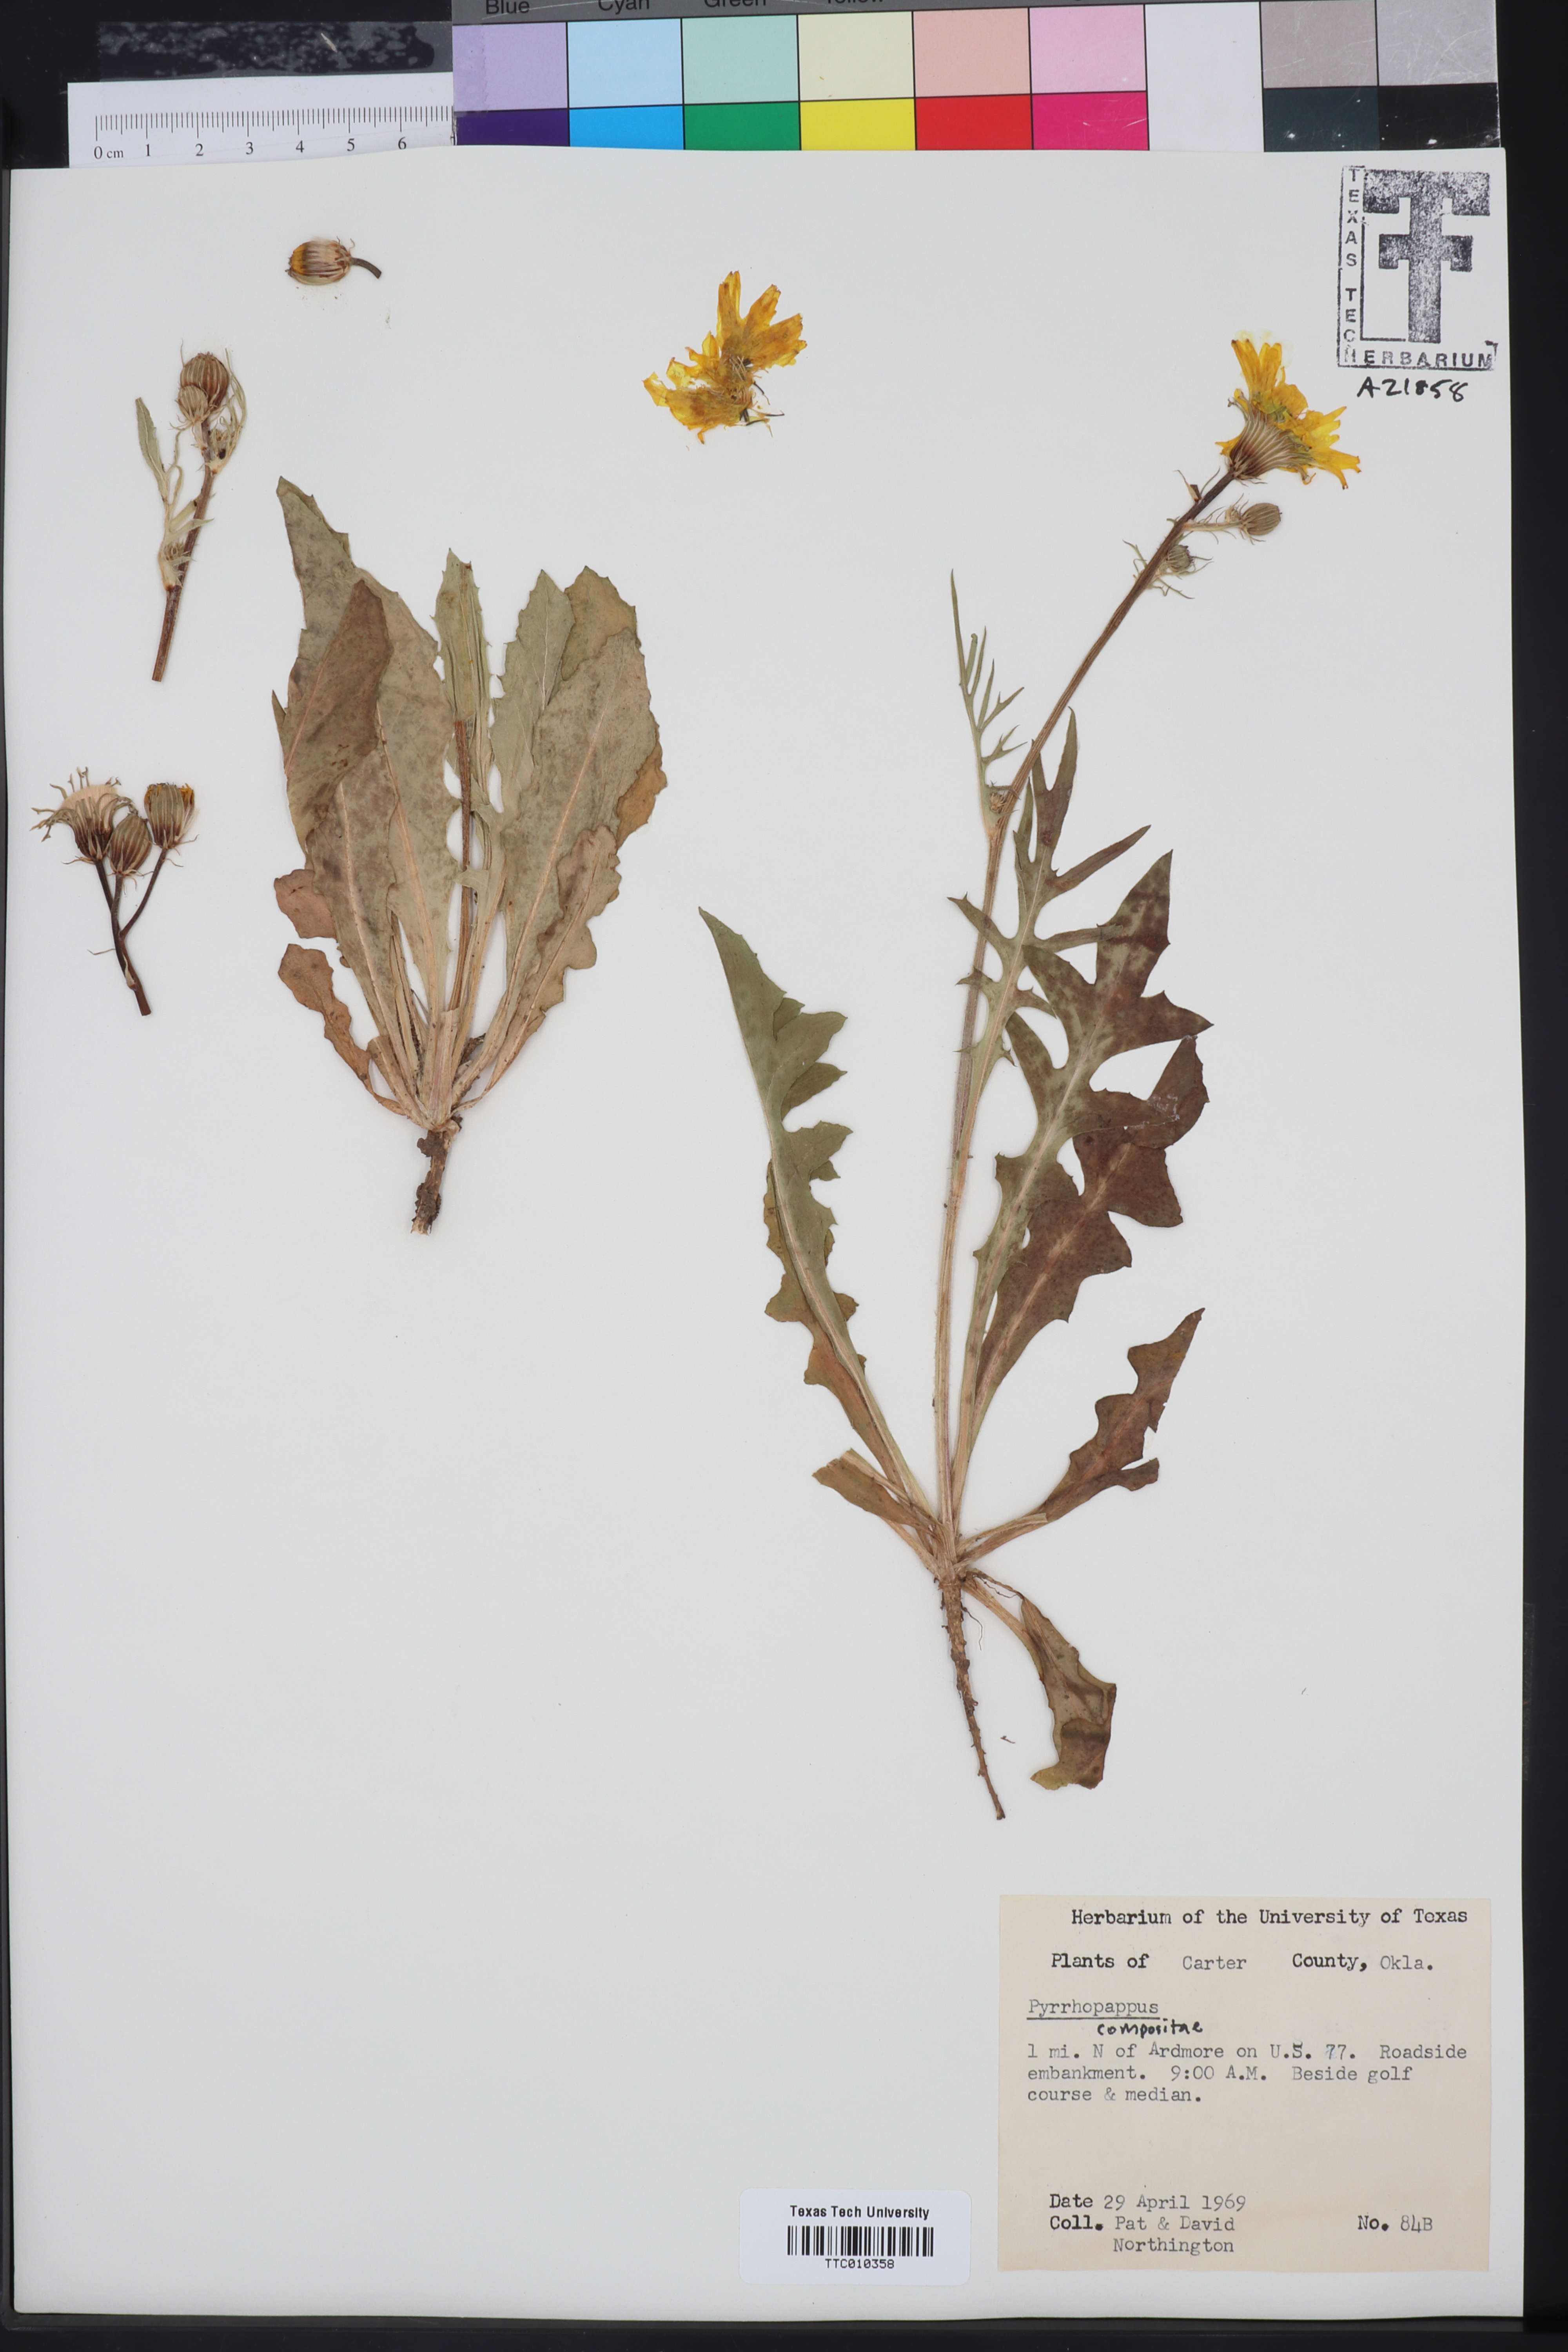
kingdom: Plantae
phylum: Tracheophyta
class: Magnoliopsida
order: Asterales
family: Asteraceae
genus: Pyrrhopappus
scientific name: Pyrrhopappus carolinianus
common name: Carolina desert-chicory
